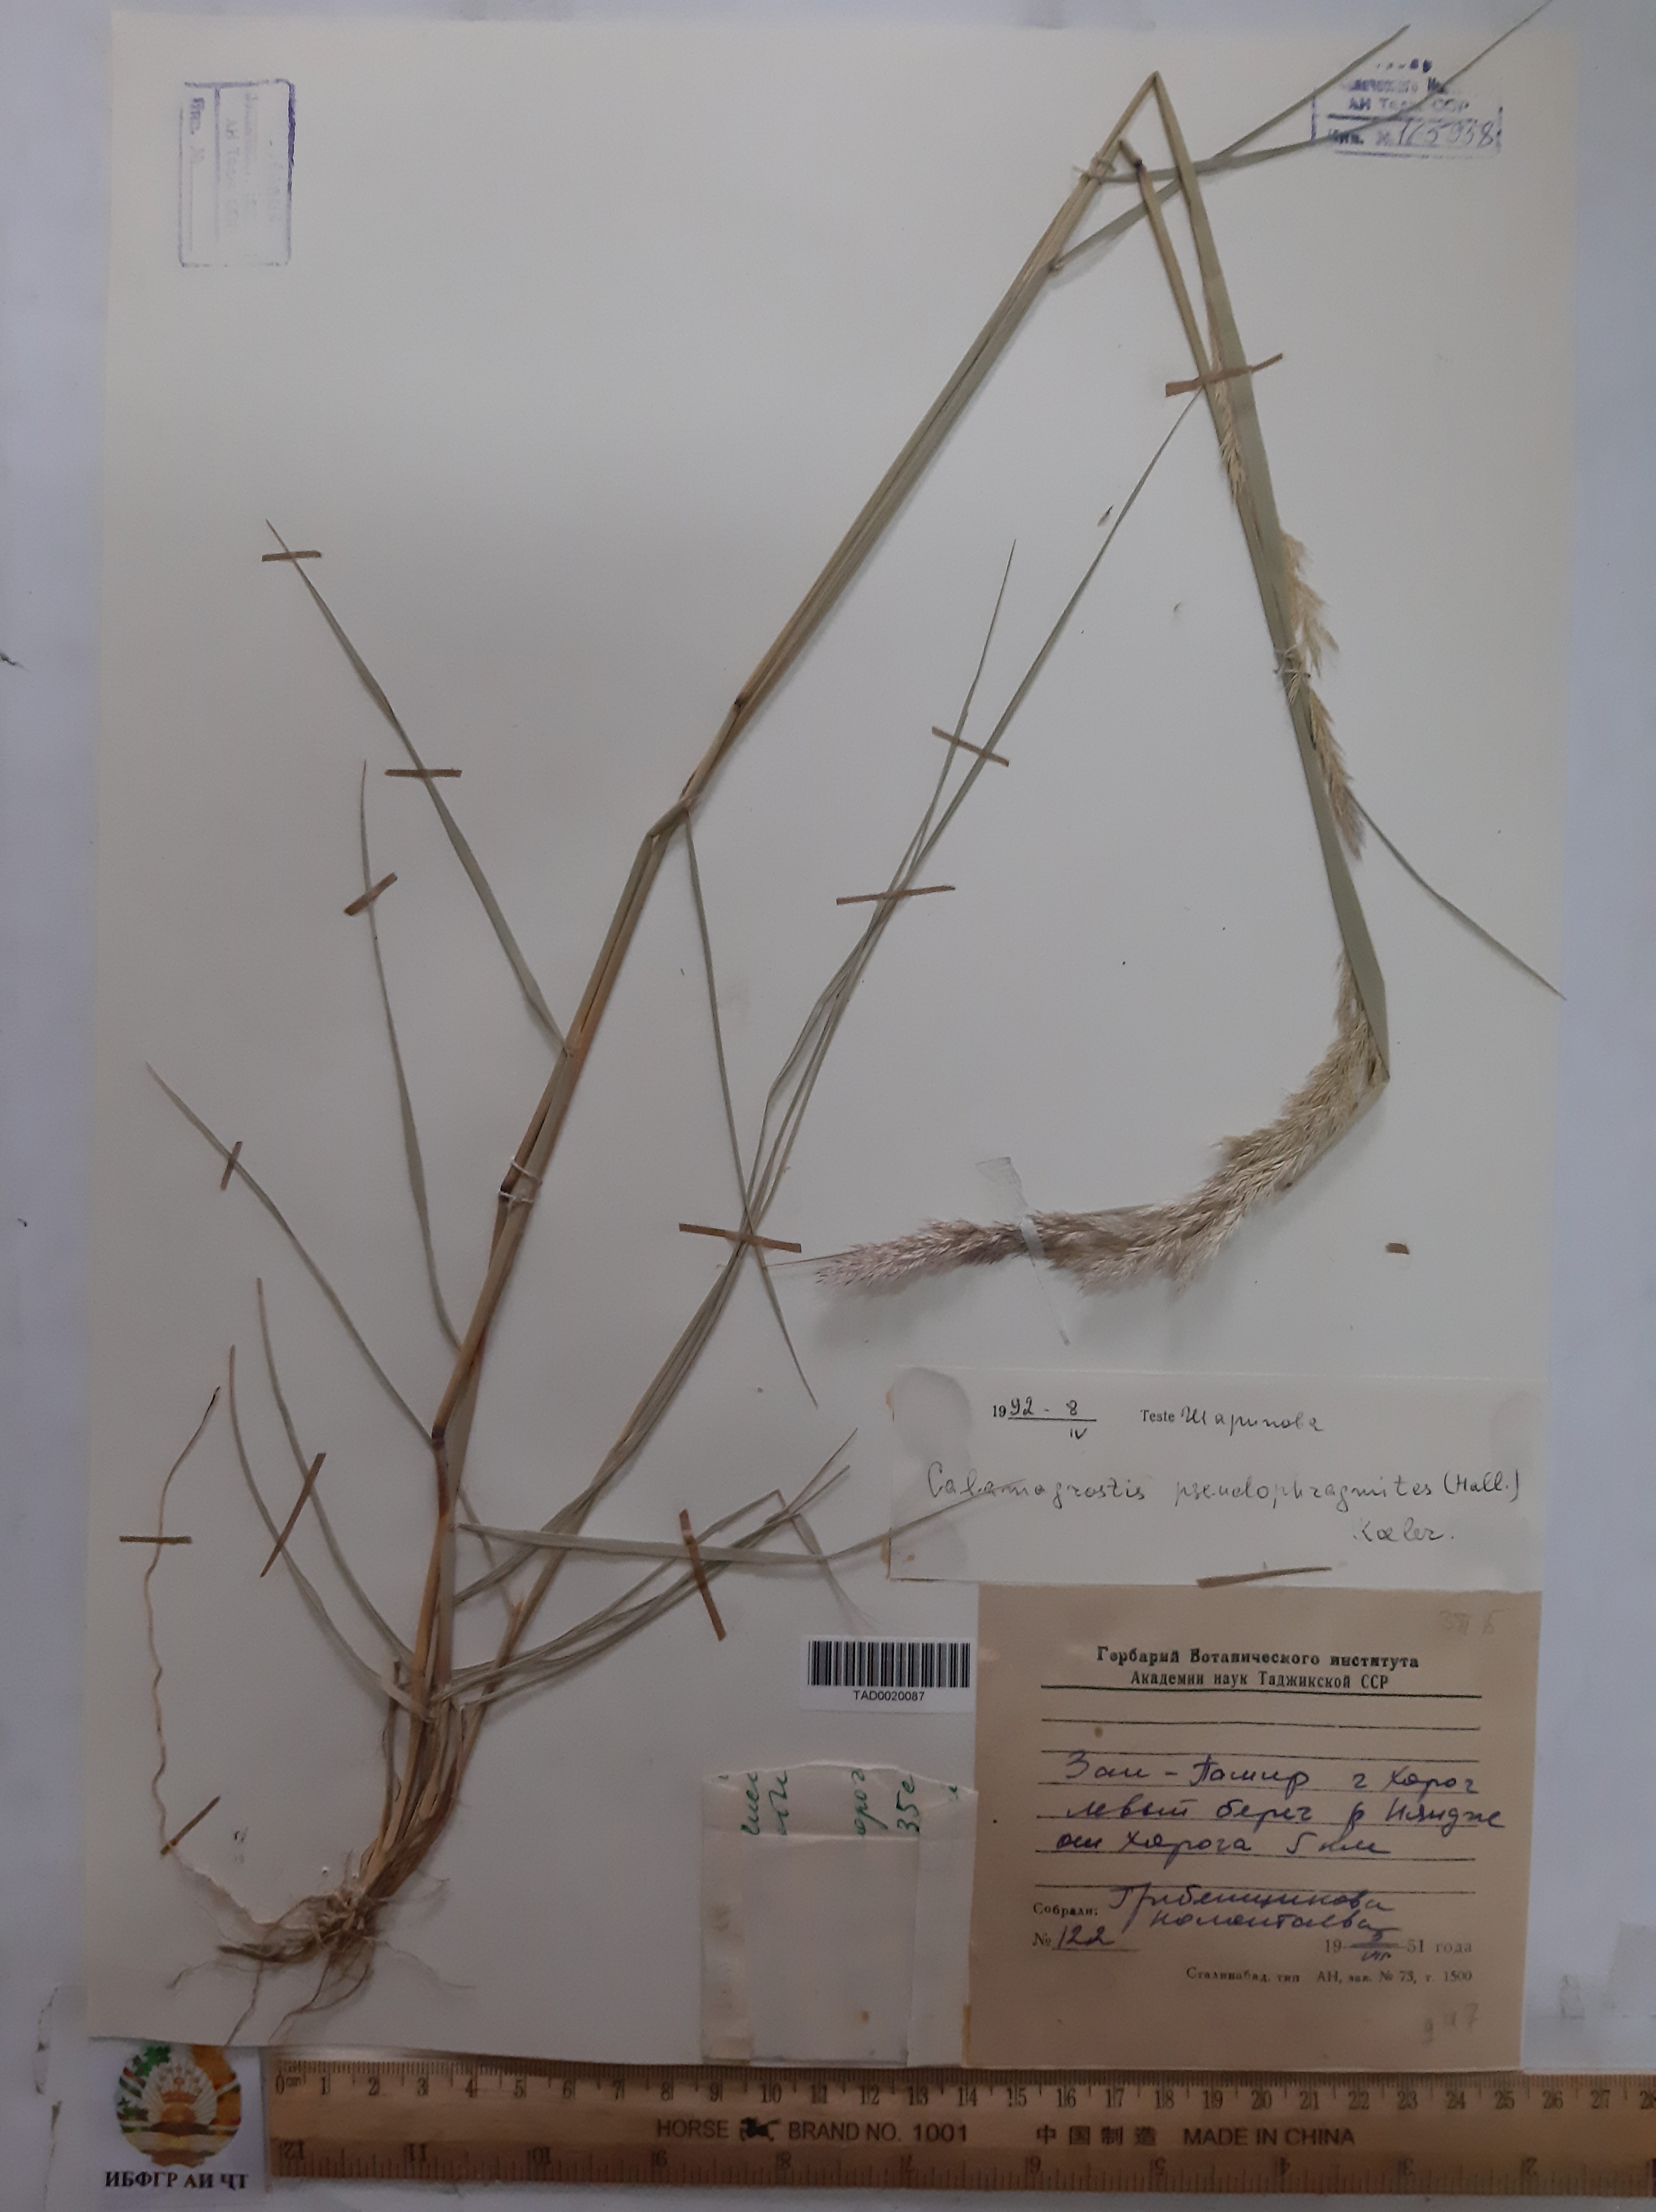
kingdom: Plantae
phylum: Tracheophyta
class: Liliopsida
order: Poales
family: Poaceae
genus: Calamagrostis
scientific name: Calamagrostis pseudophragmites
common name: Coastal small-reed
